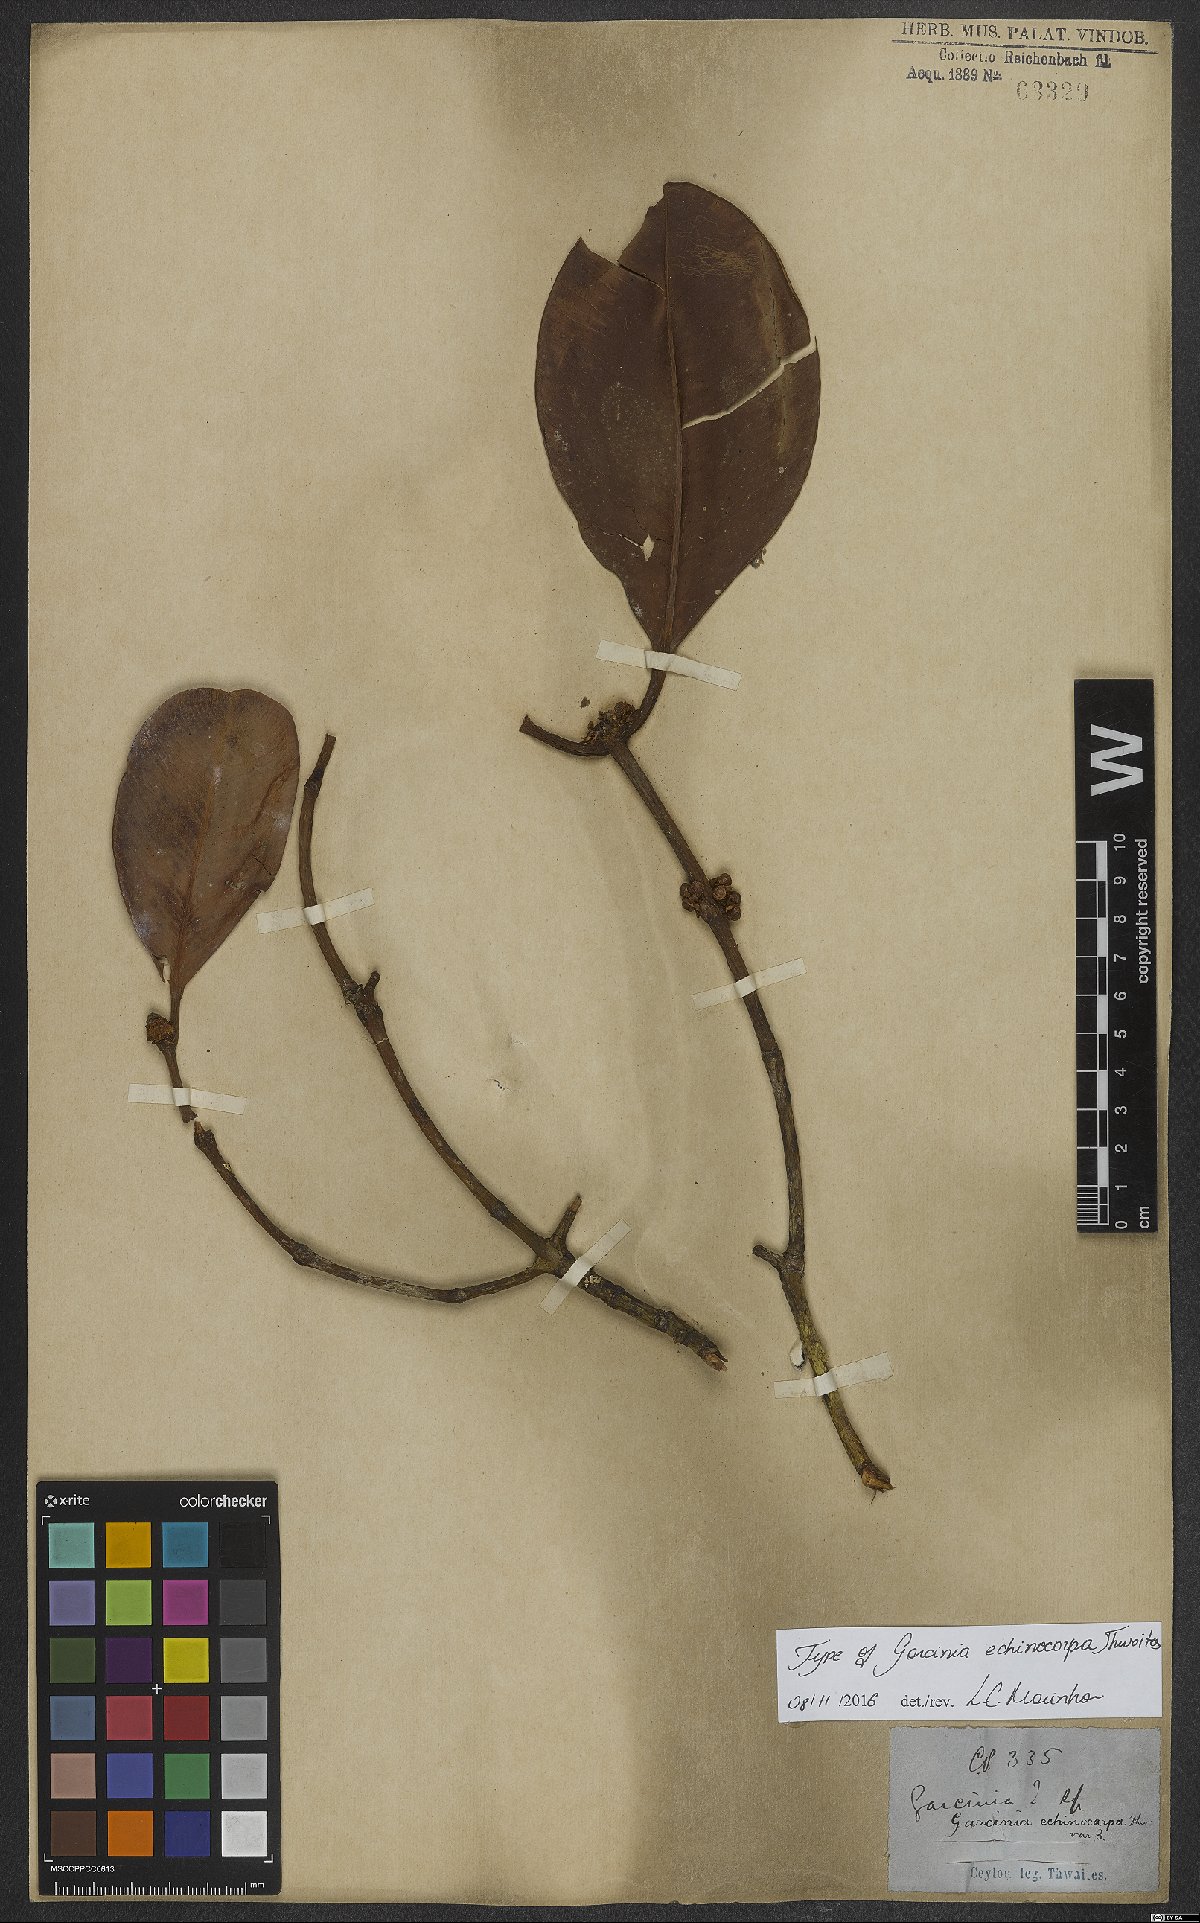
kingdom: Plantae
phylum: Tracheophyta
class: Magnoliopsida
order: Malpighiales
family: Clusiaceae
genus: Garcinia
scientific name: Garcinia echinocarpa
